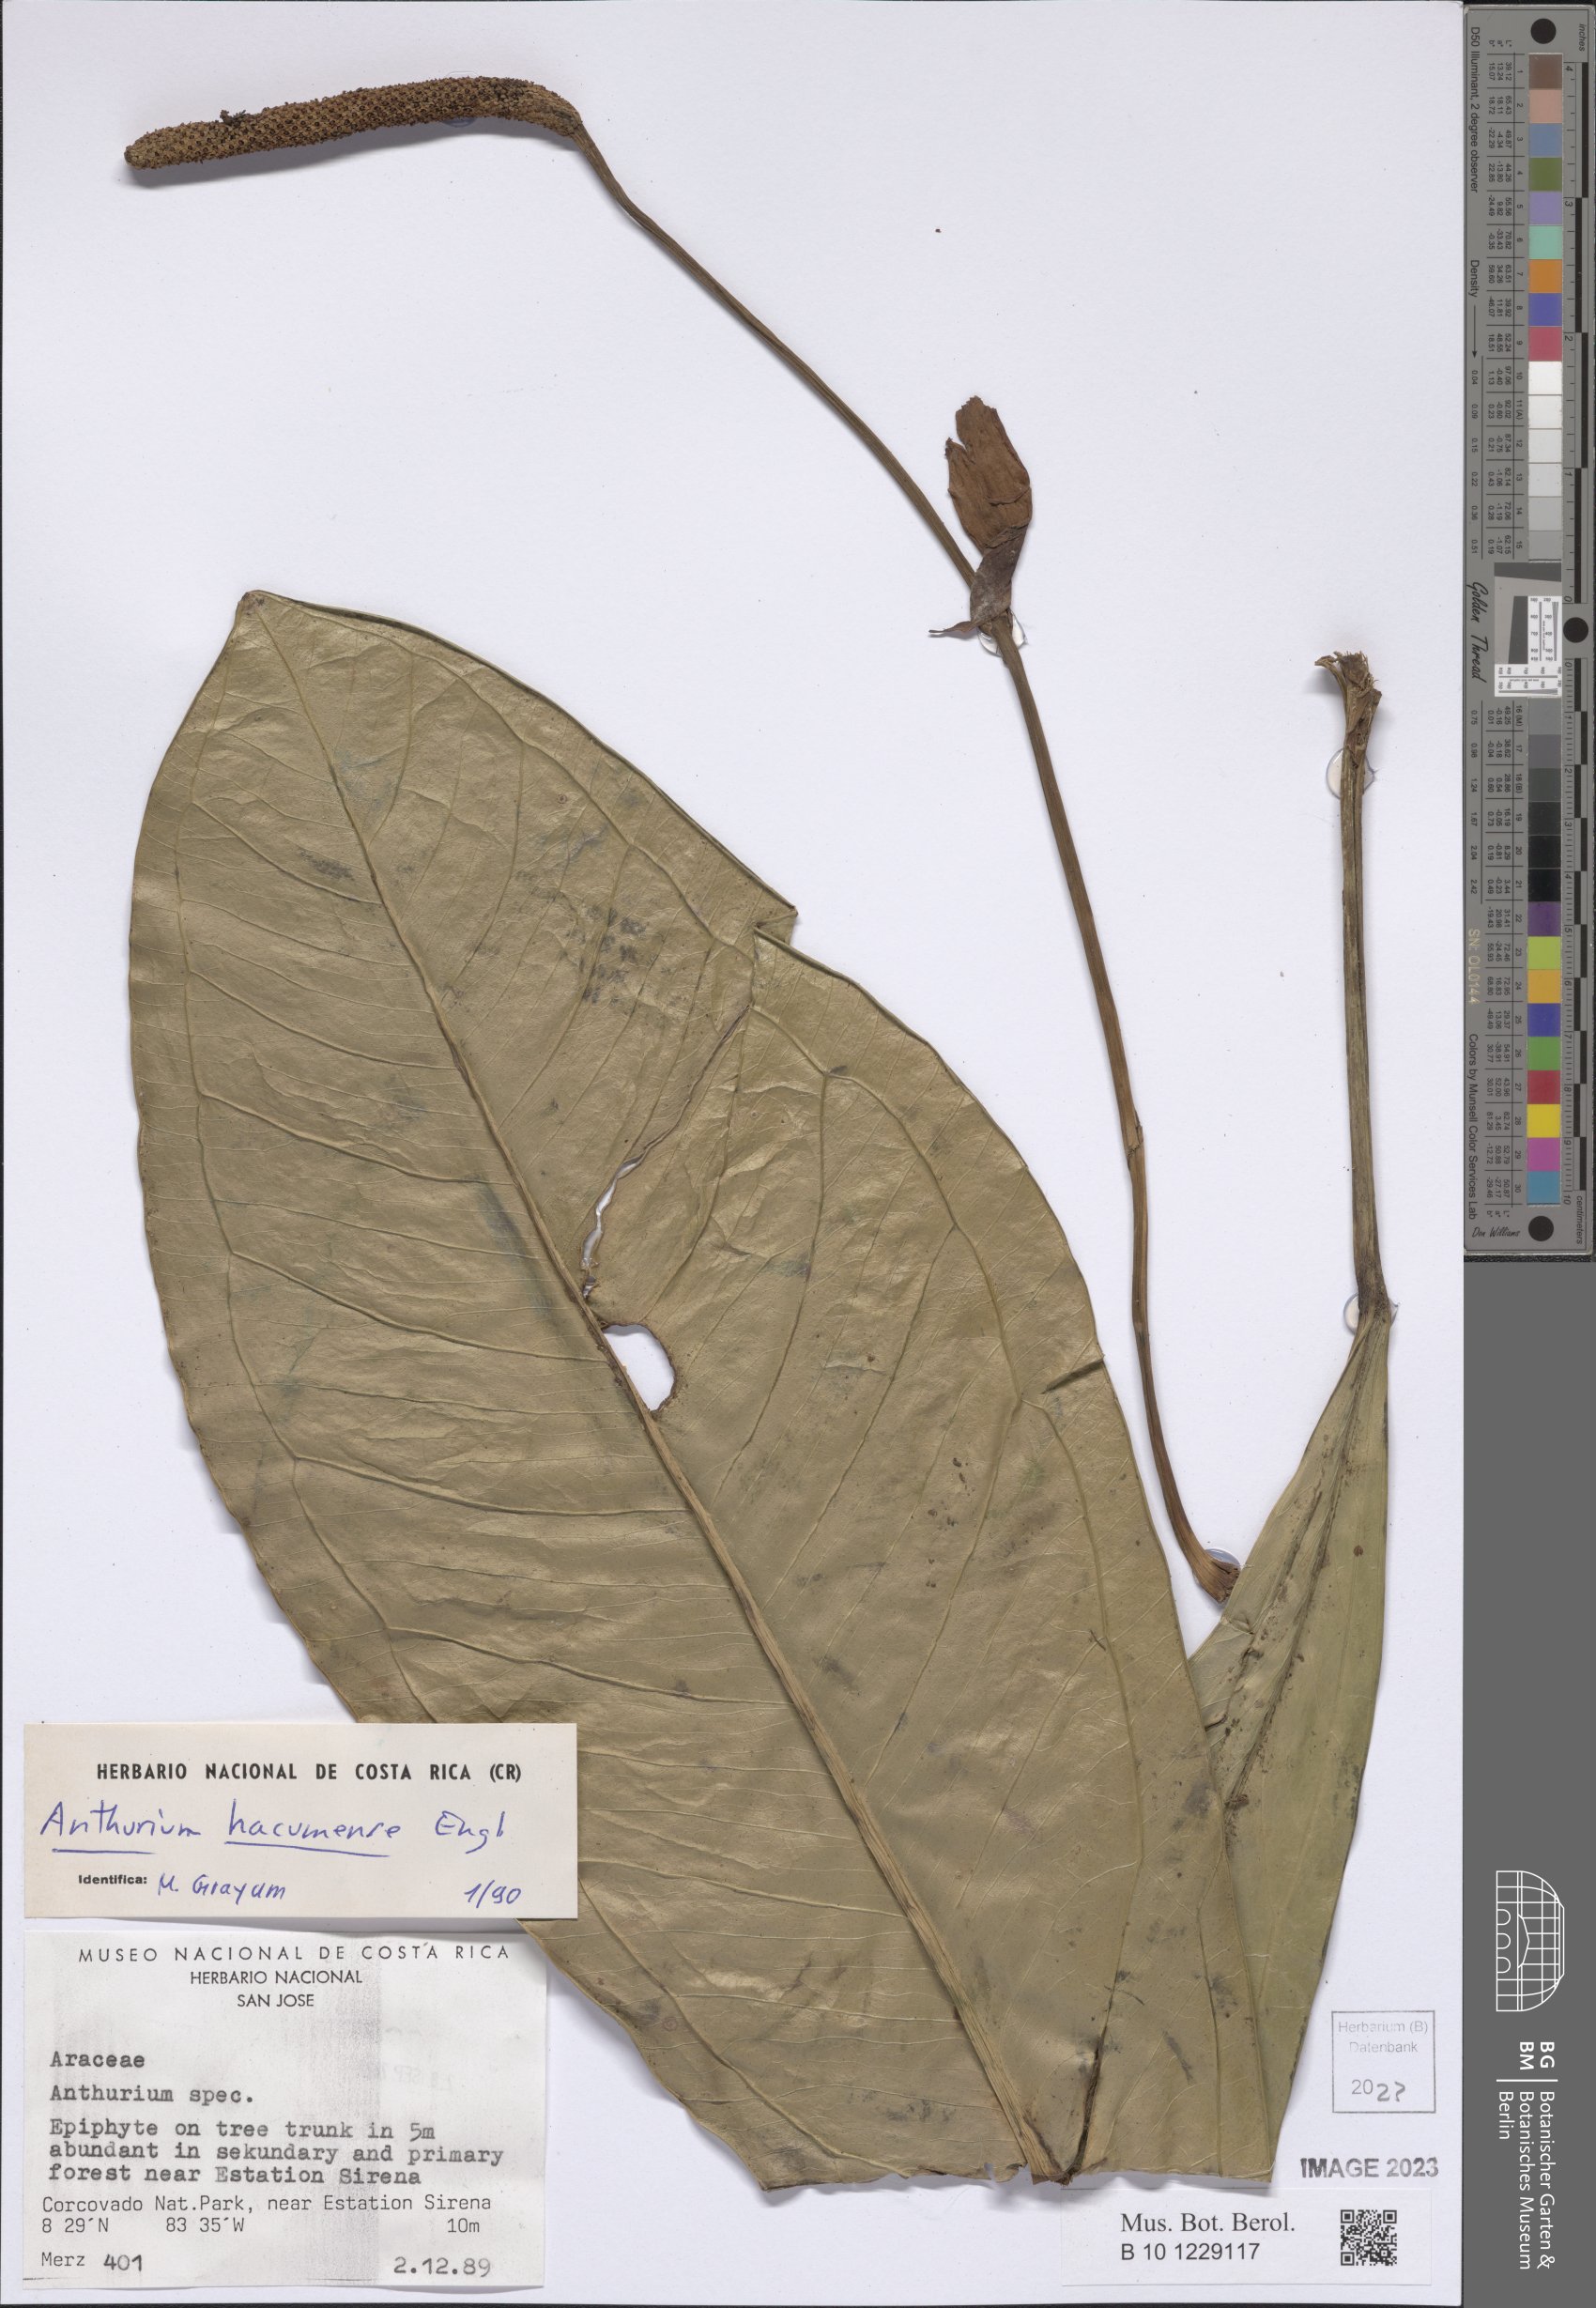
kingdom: Plantae
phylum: Tracheophyta
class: Liliopsida
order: Alismatales
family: Araceae
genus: Anthurium
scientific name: Anthurium hacumense
